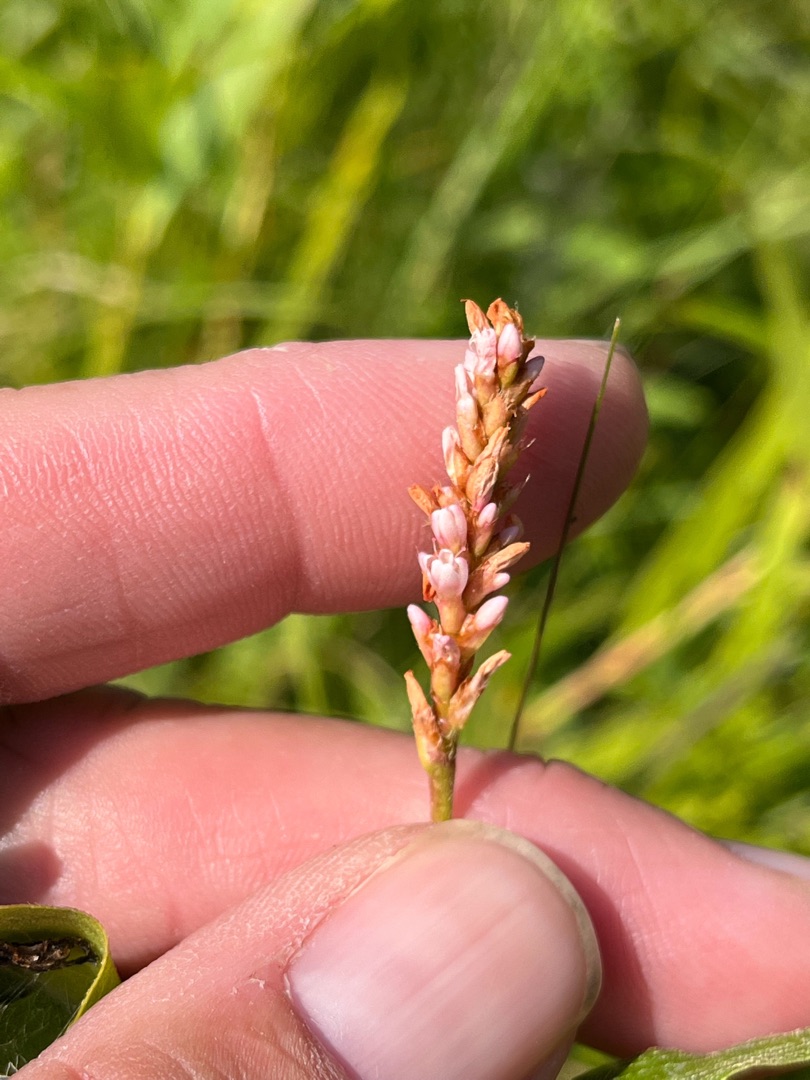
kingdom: Plantae
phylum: Tracheophyta
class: Magnoliopsida
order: Caryophyllales
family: Polygonaceae
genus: Persicaria
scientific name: Persicaria amphibia
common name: Vand-pileurt
